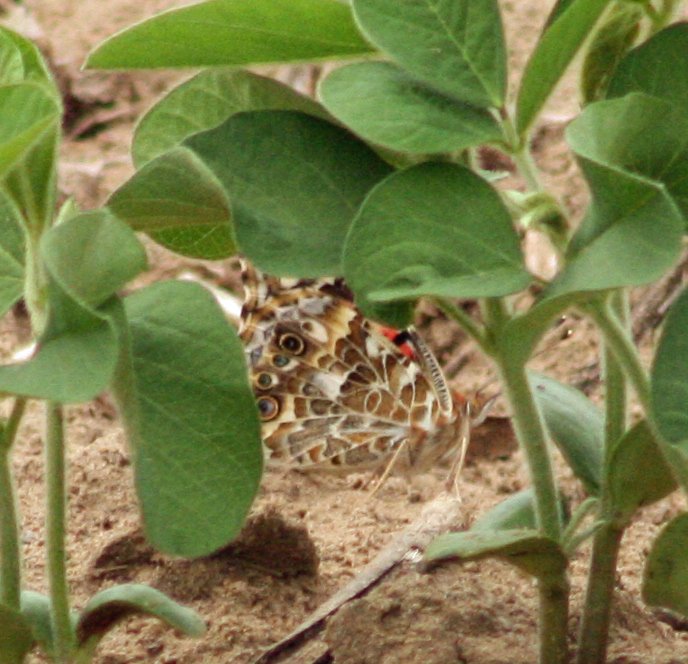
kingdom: Animalia
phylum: Arthropoda
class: Insecta
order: Lepidoptera
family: Nymphalidae
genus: Vanessa
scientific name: Vanessa cardui
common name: Painted Lady
